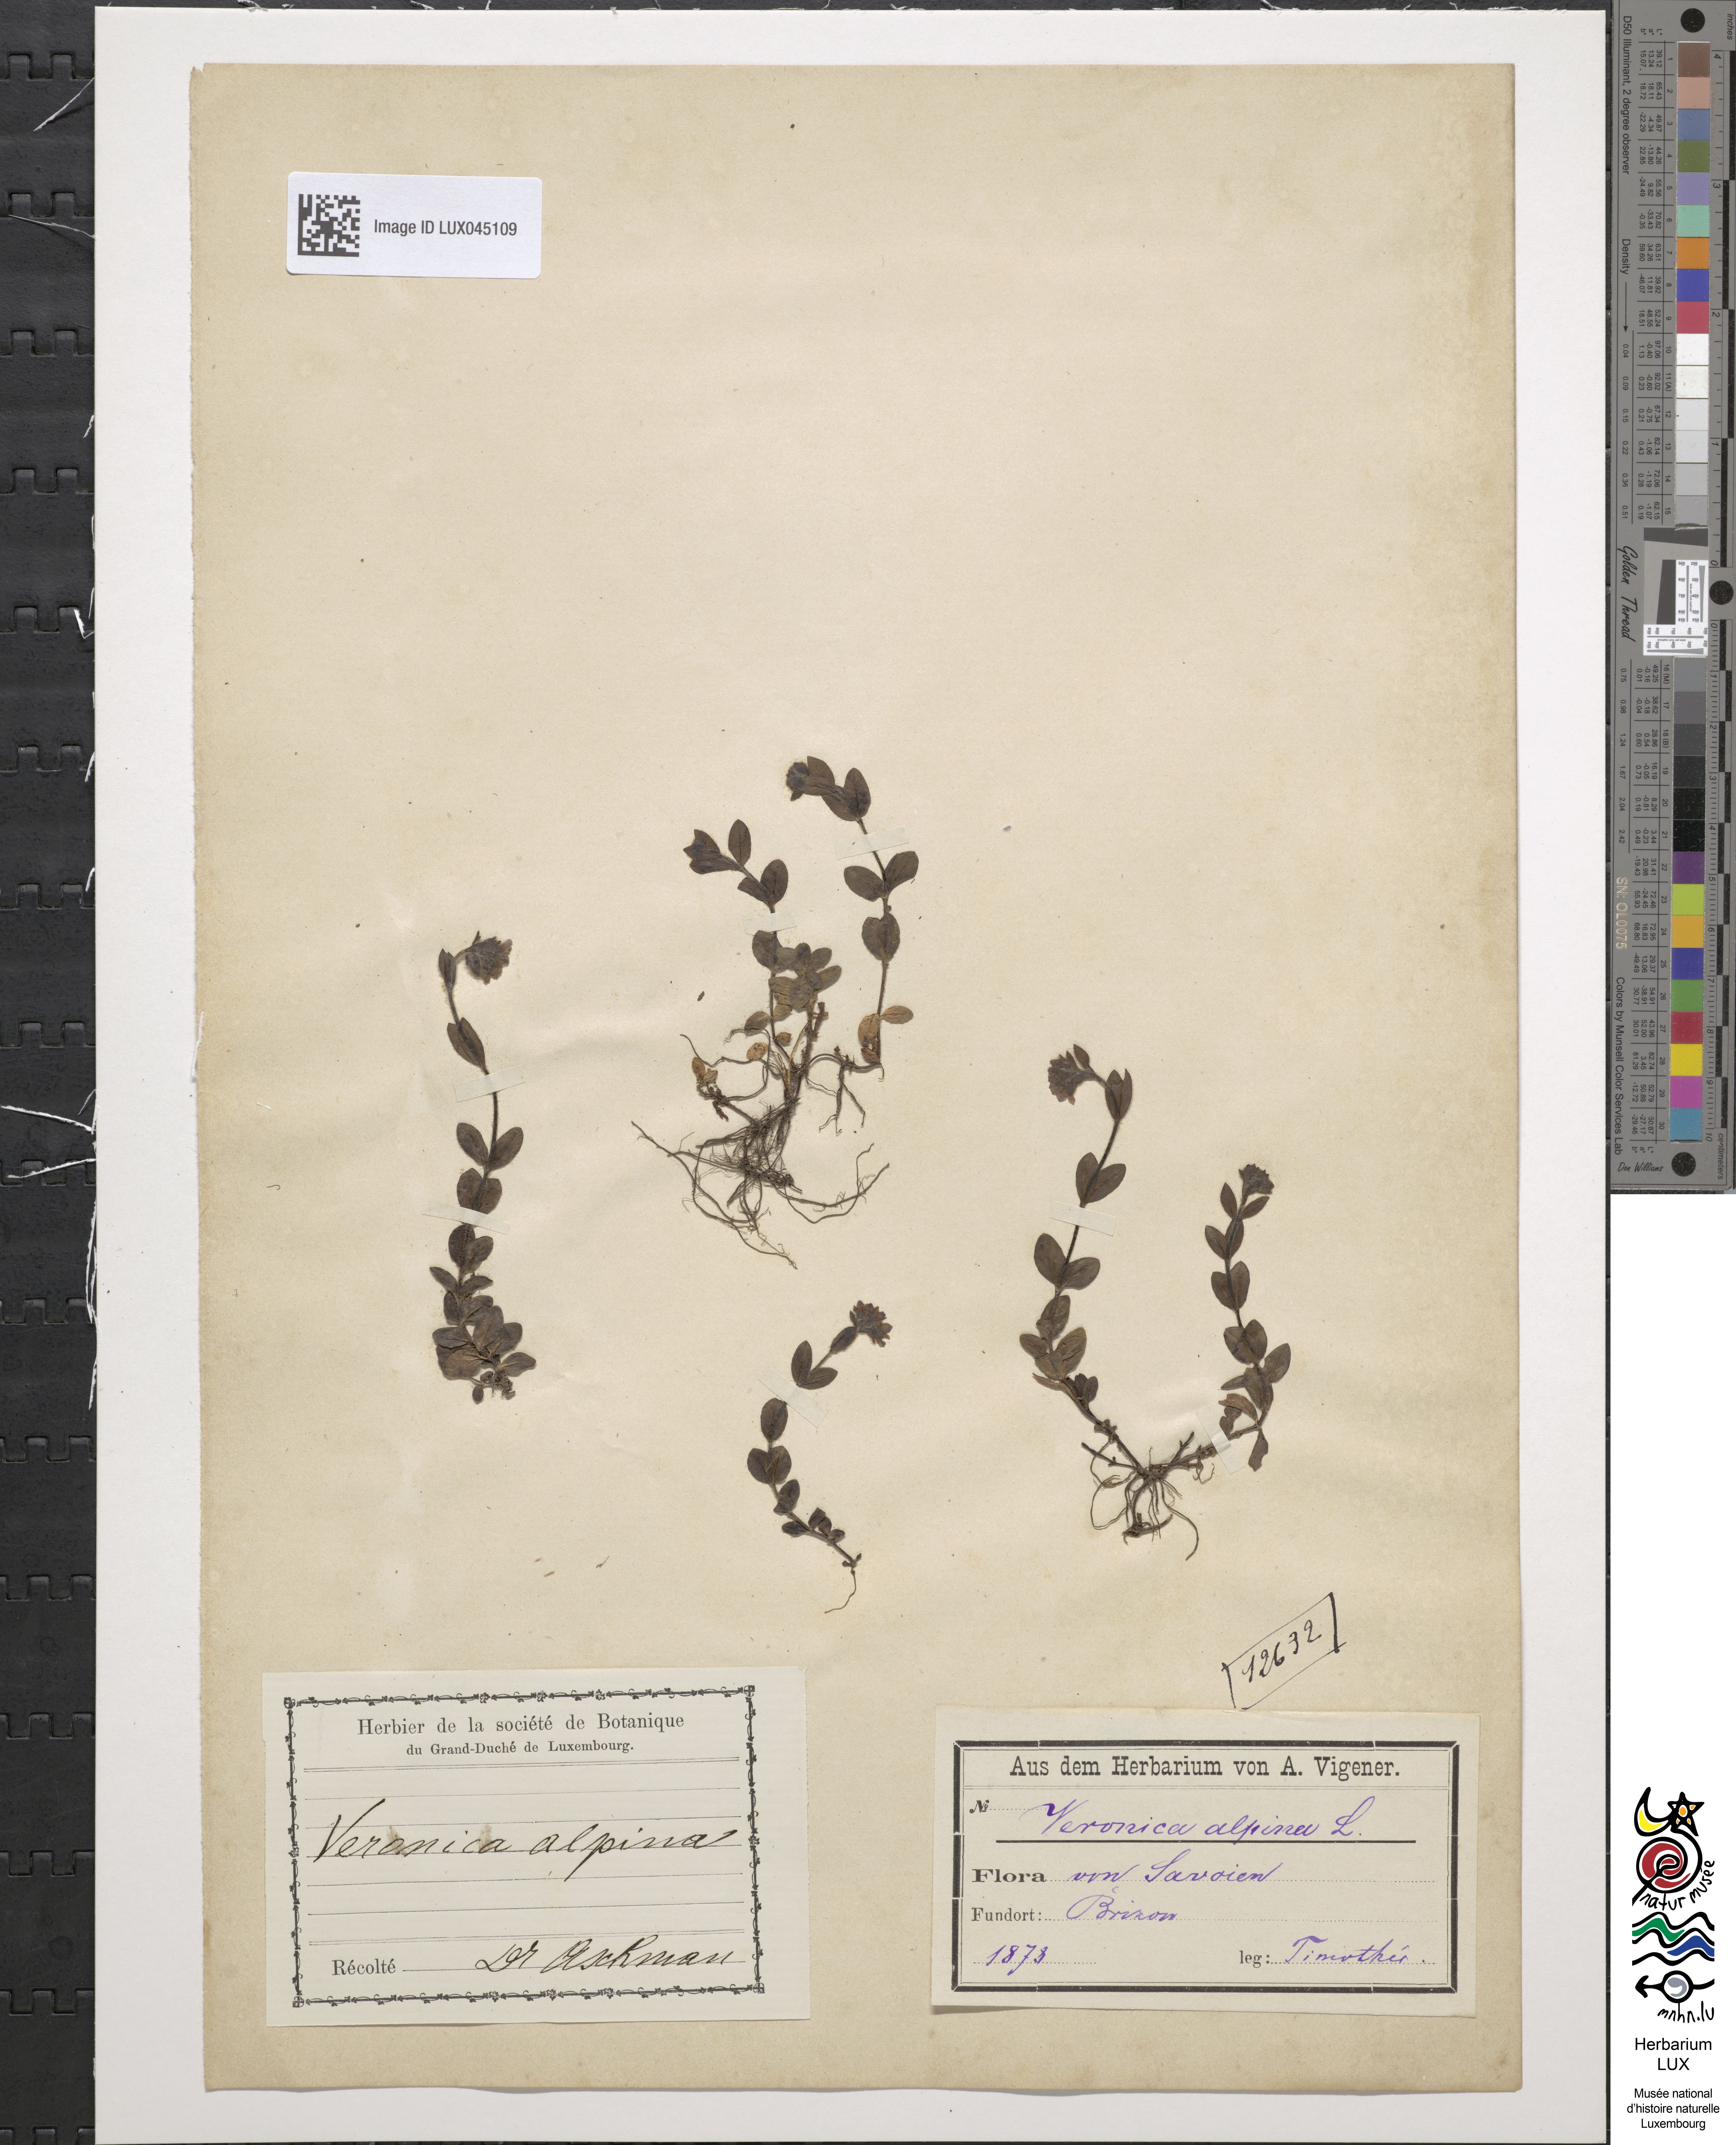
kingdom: Plantae
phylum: Tracheophyta
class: Magnoliopsida
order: Lamiales
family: Plantaginaceae
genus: Veronica
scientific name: Veronica alpina
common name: Alpine speedwell
